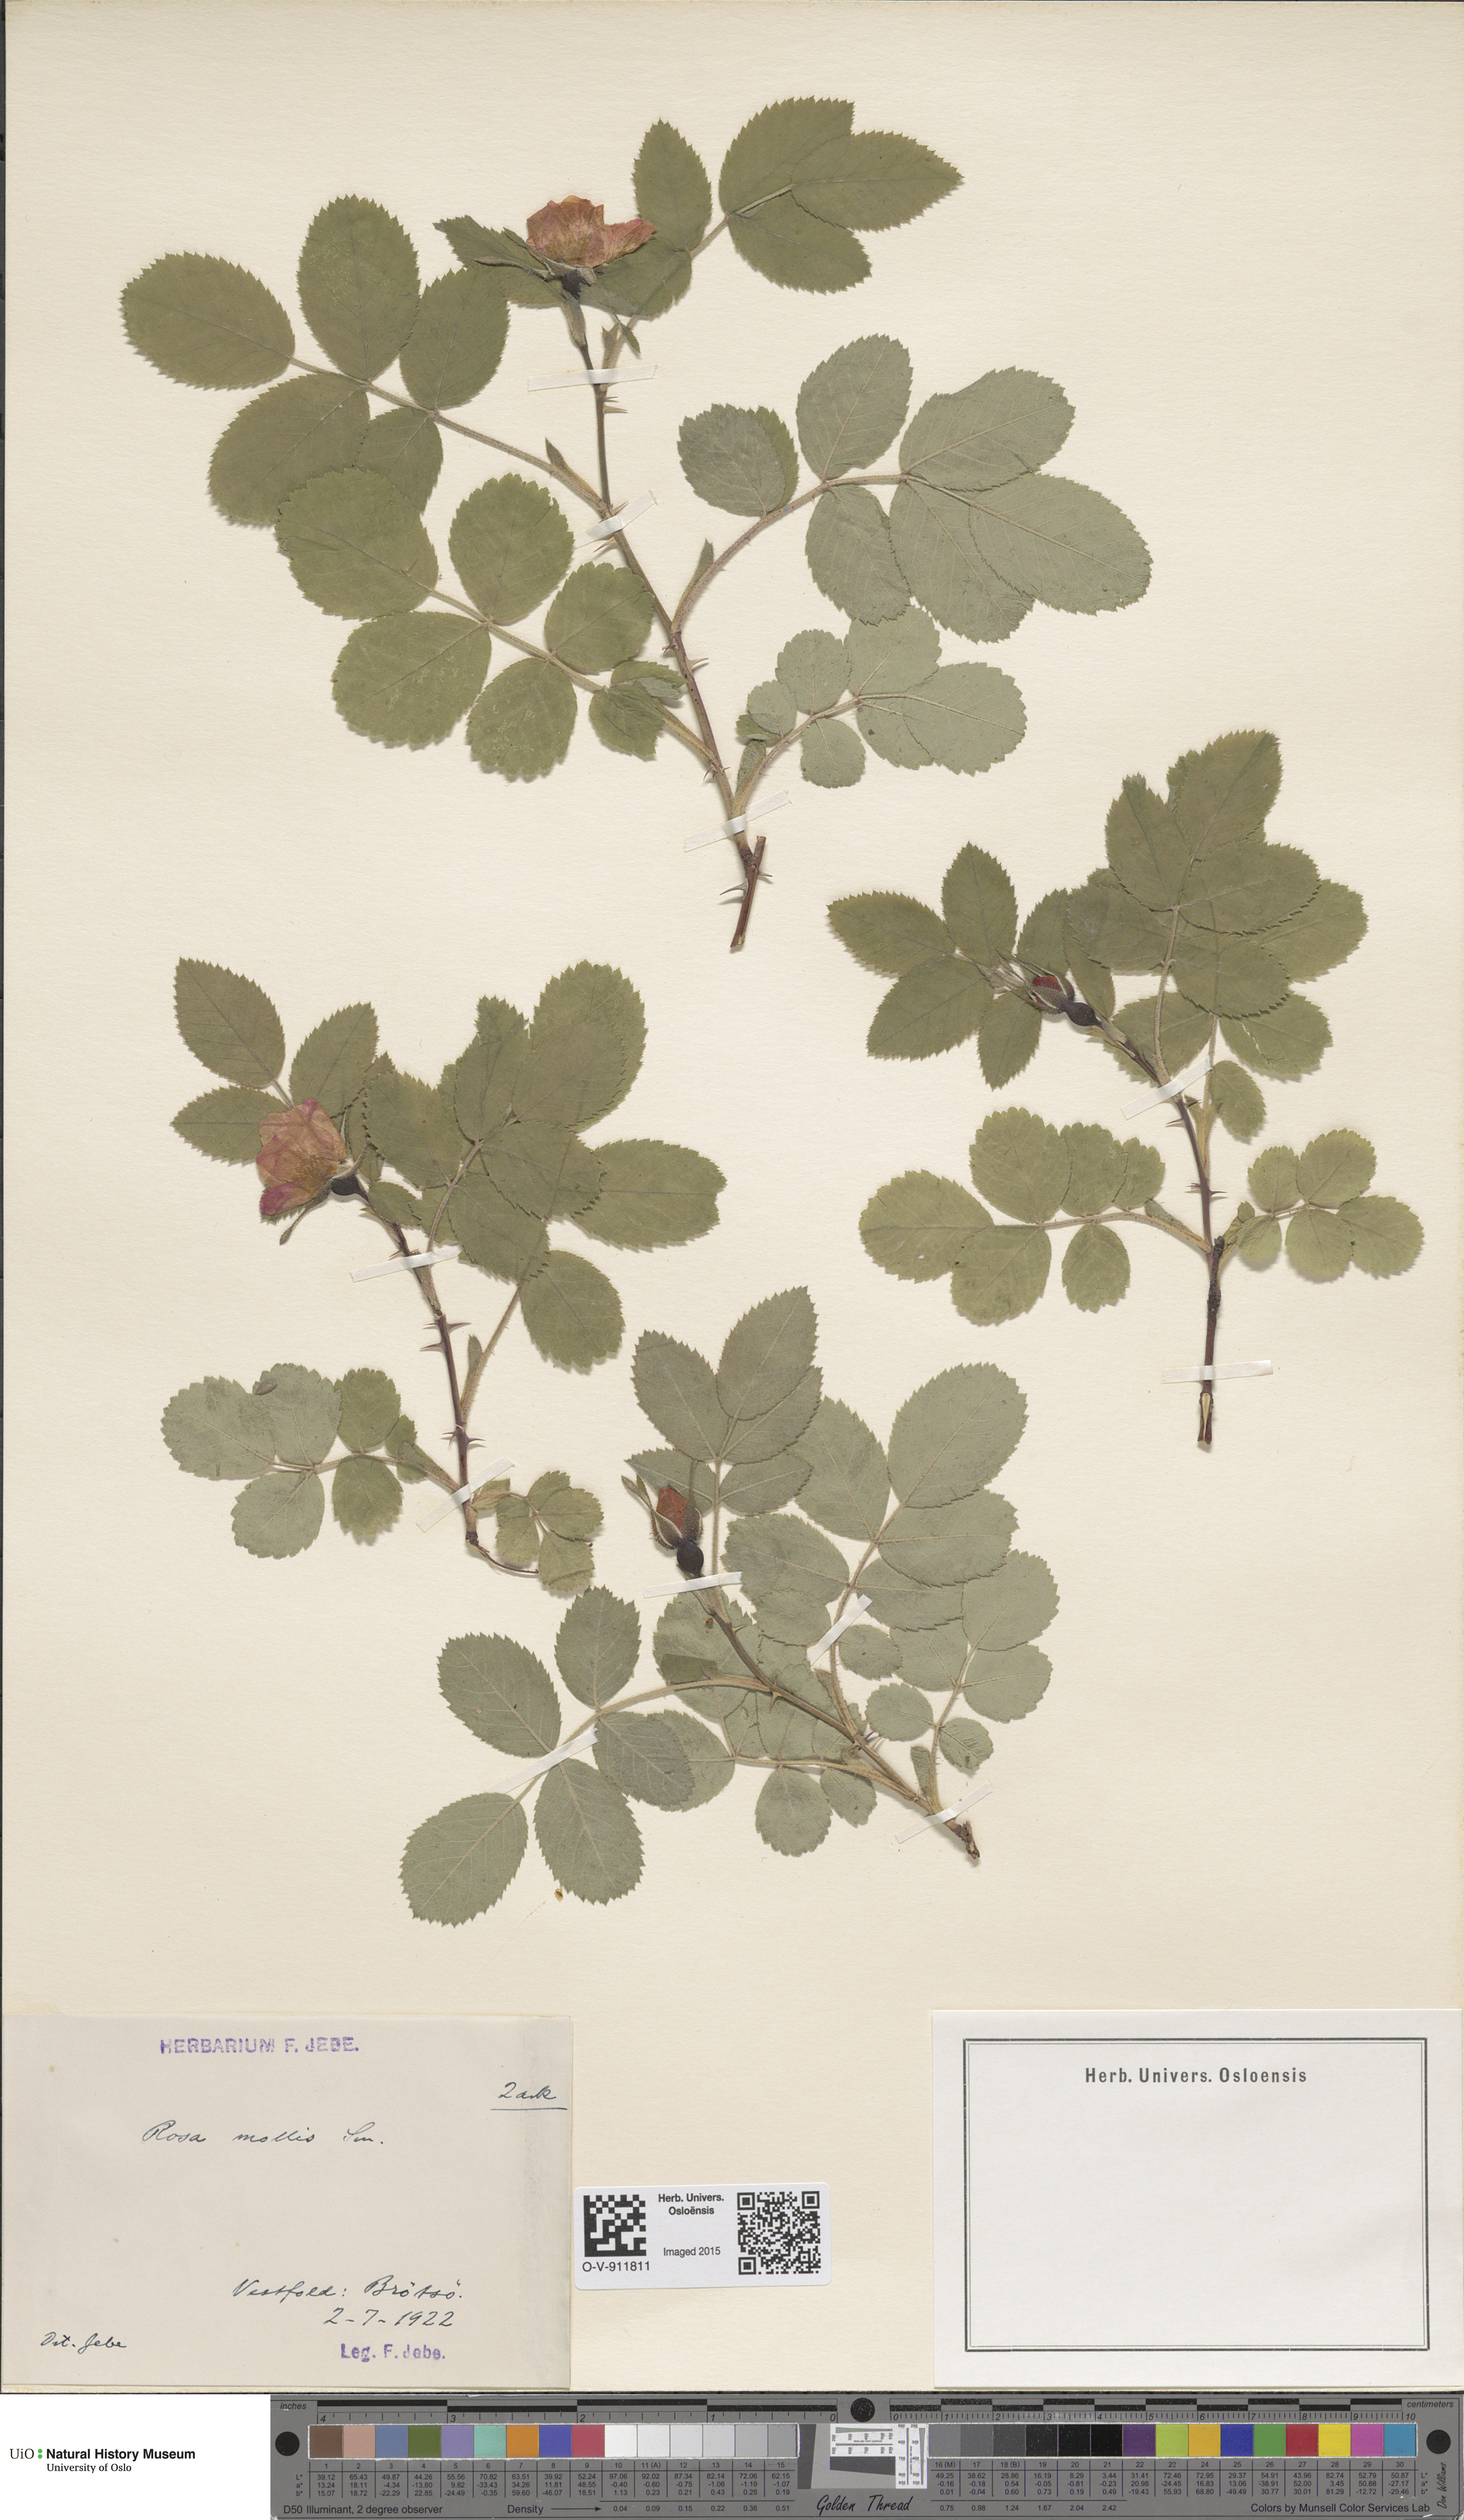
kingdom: Plantae
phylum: Tracheophyta
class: Magnoliopsida
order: Rosales
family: Rosaceae
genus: Rosa
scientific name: Rosa mollis
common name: Rose
